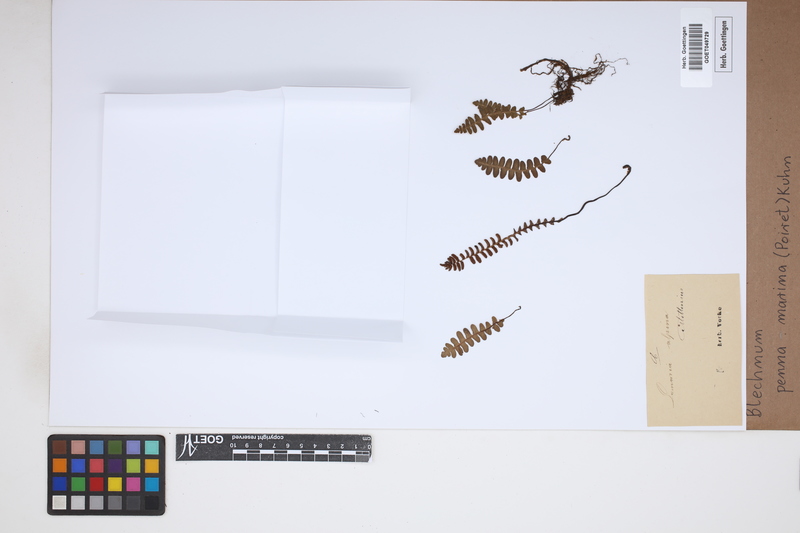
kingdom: Plantae
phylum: Tracheophyta
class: Polypodiopsida
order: Polypodiales
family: Blechnaceae
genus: Austroblechnum
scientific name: Austroblechnum penna-marina
